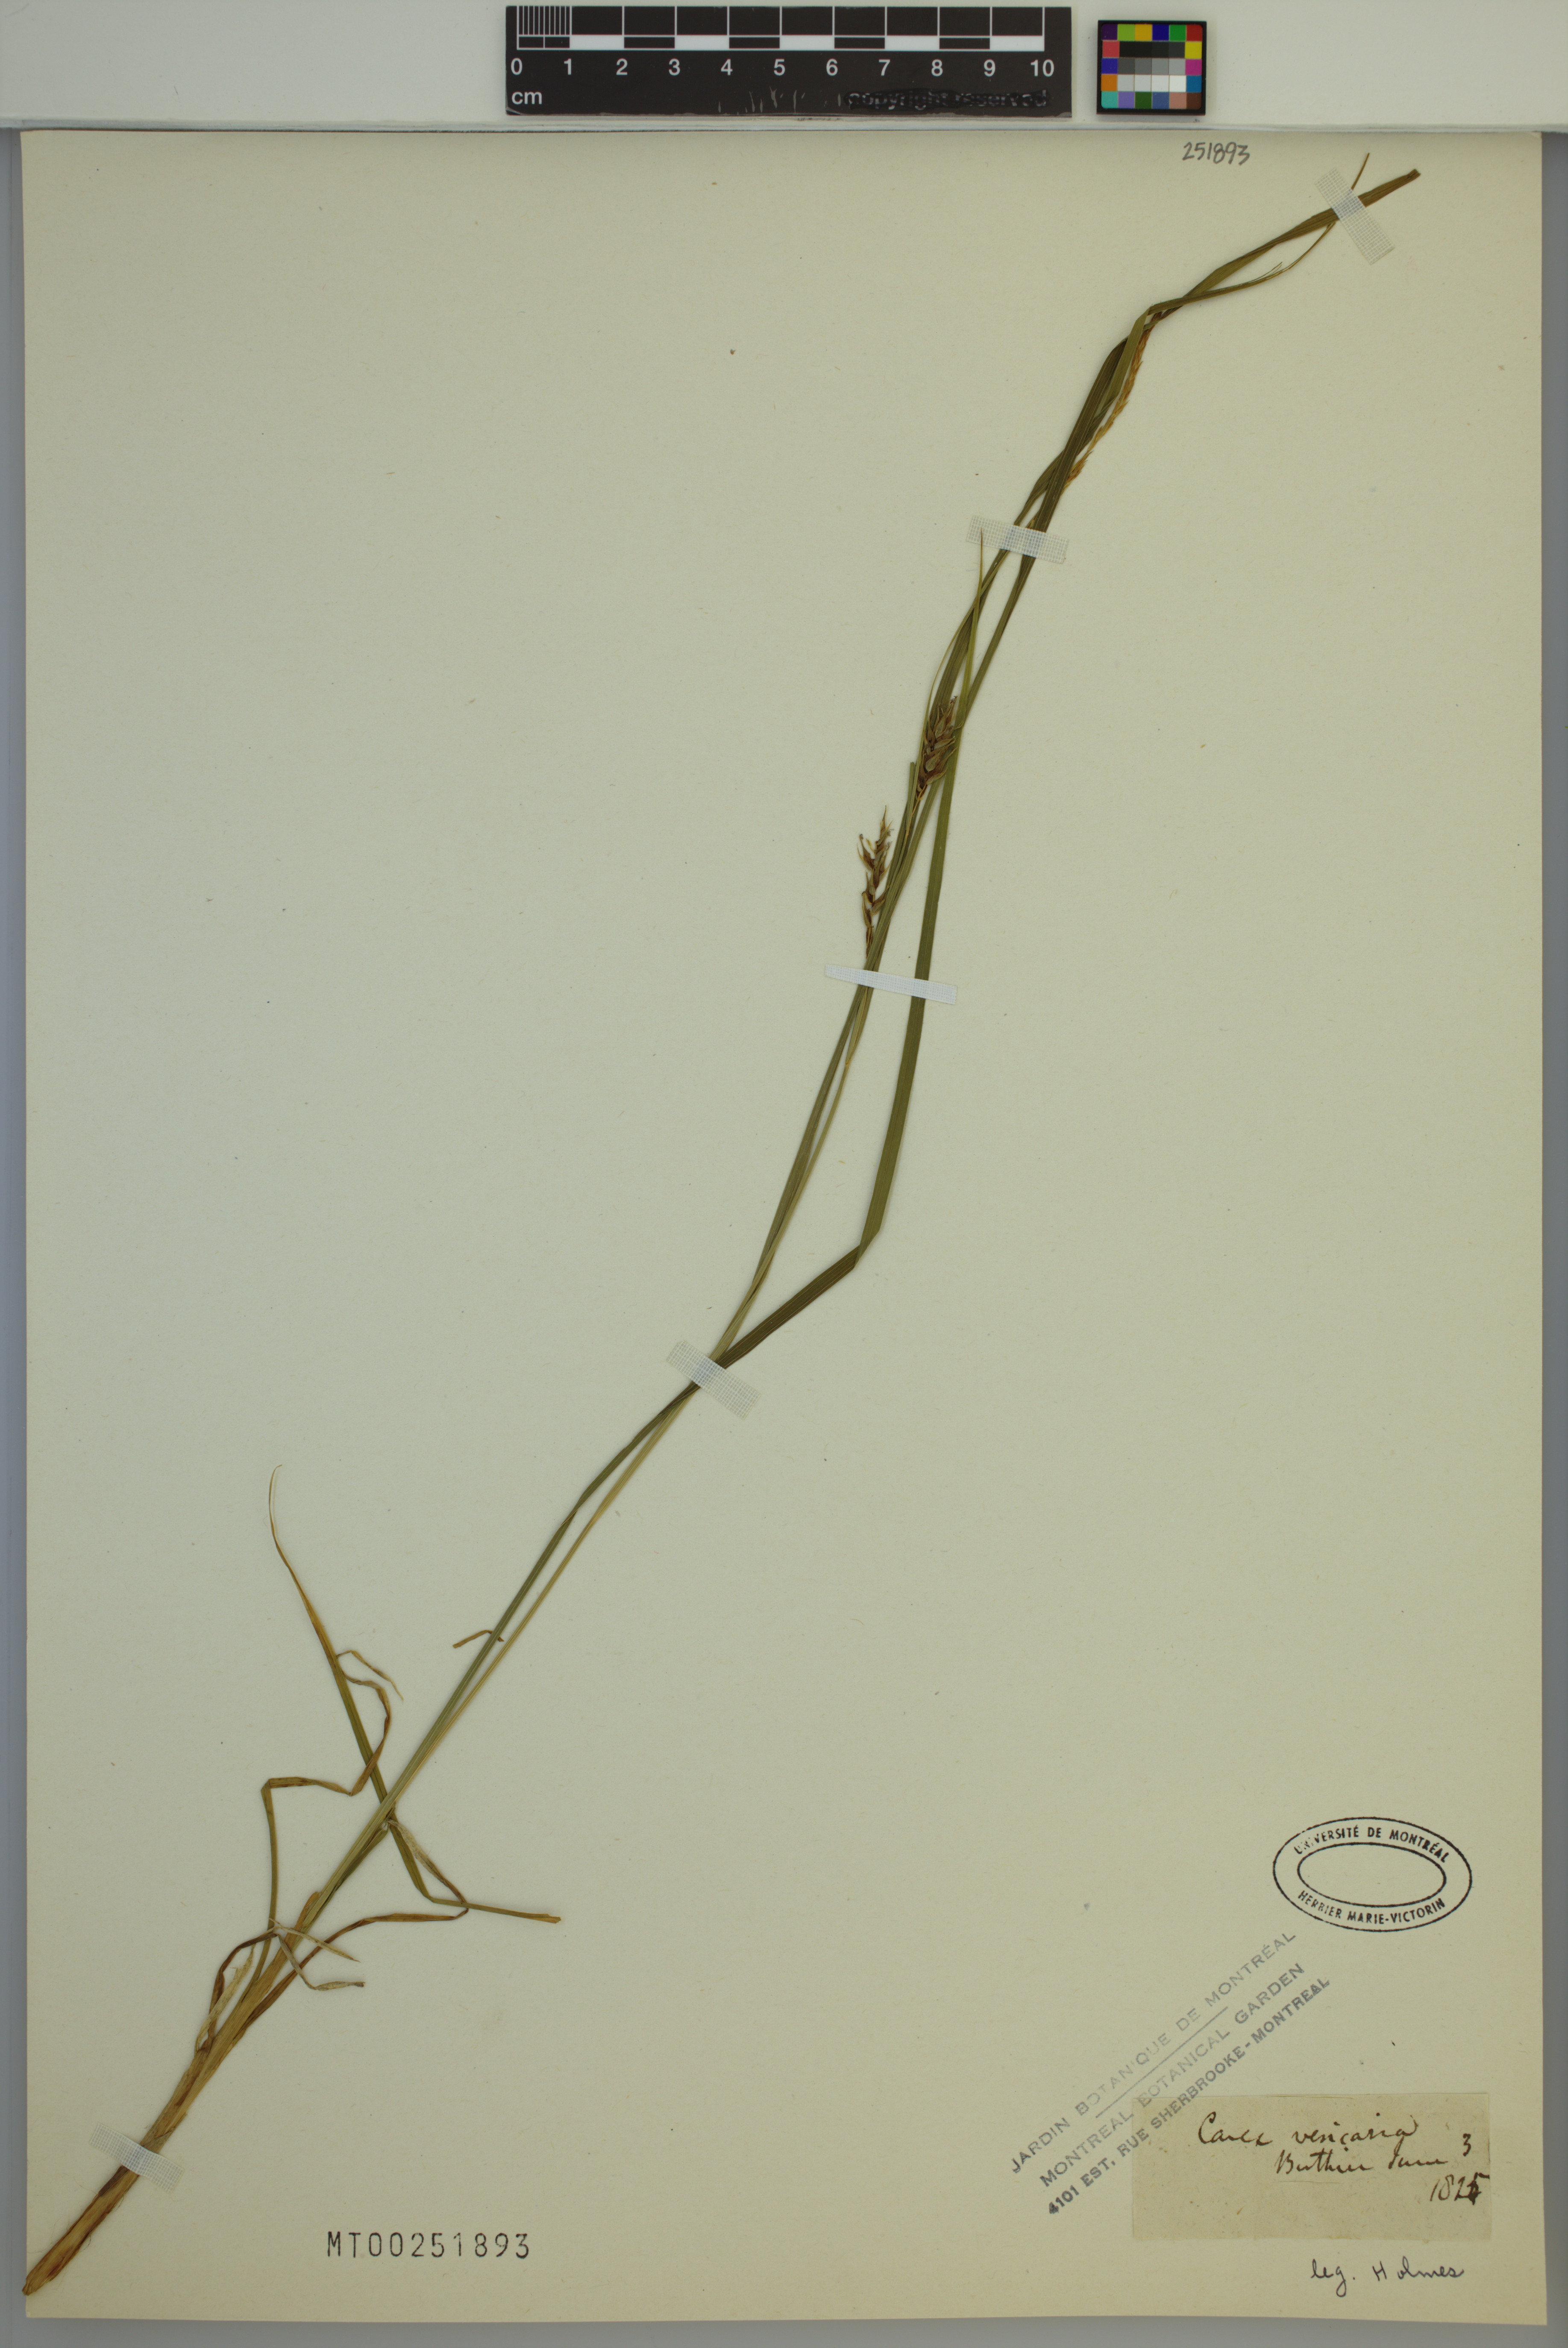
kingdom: Plantae
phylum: Tracheophyta
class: Liliopsida
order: Poales
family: Cyperaceae
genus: Carex
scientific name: Carex vesicaria
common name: Bladder-sedge
